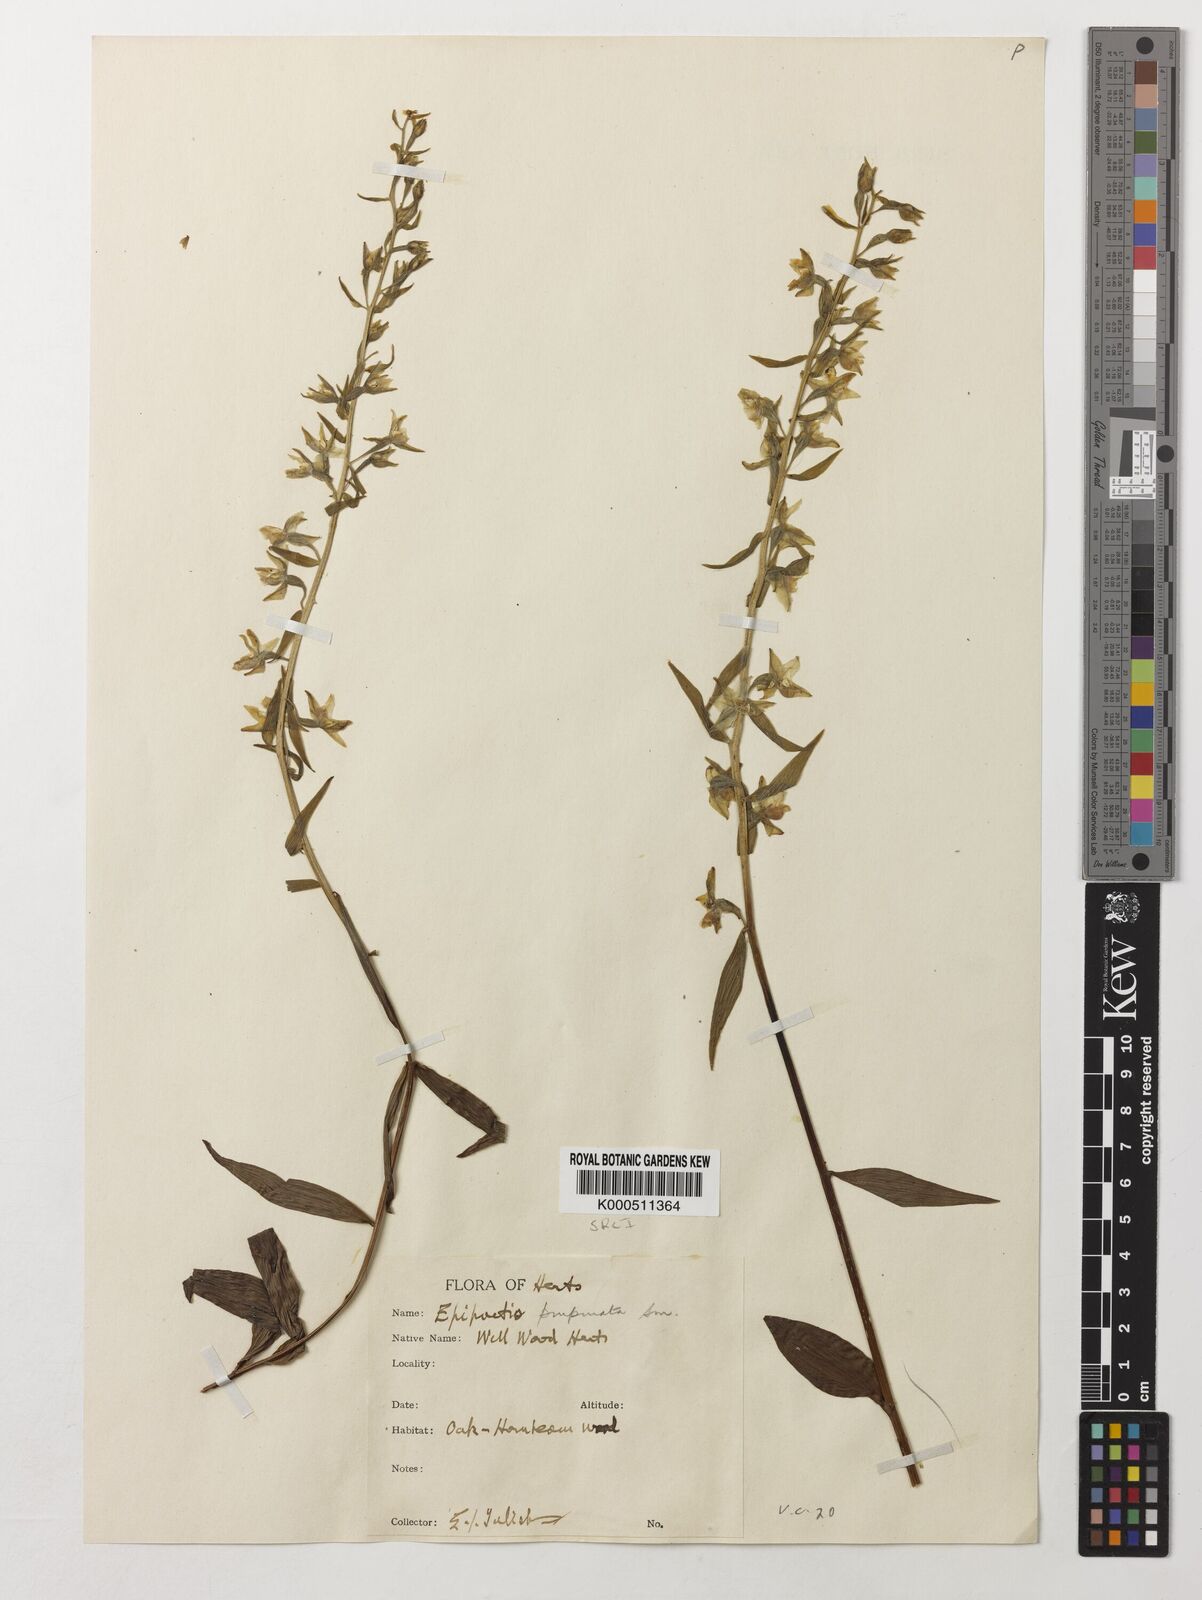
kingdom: Plantae
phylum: Tracheophyta
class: Liliopsida
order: Asparagales
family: Orchidaceae
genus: Epipactis
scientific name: Epipactis purpurata
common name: Violet helleborine
